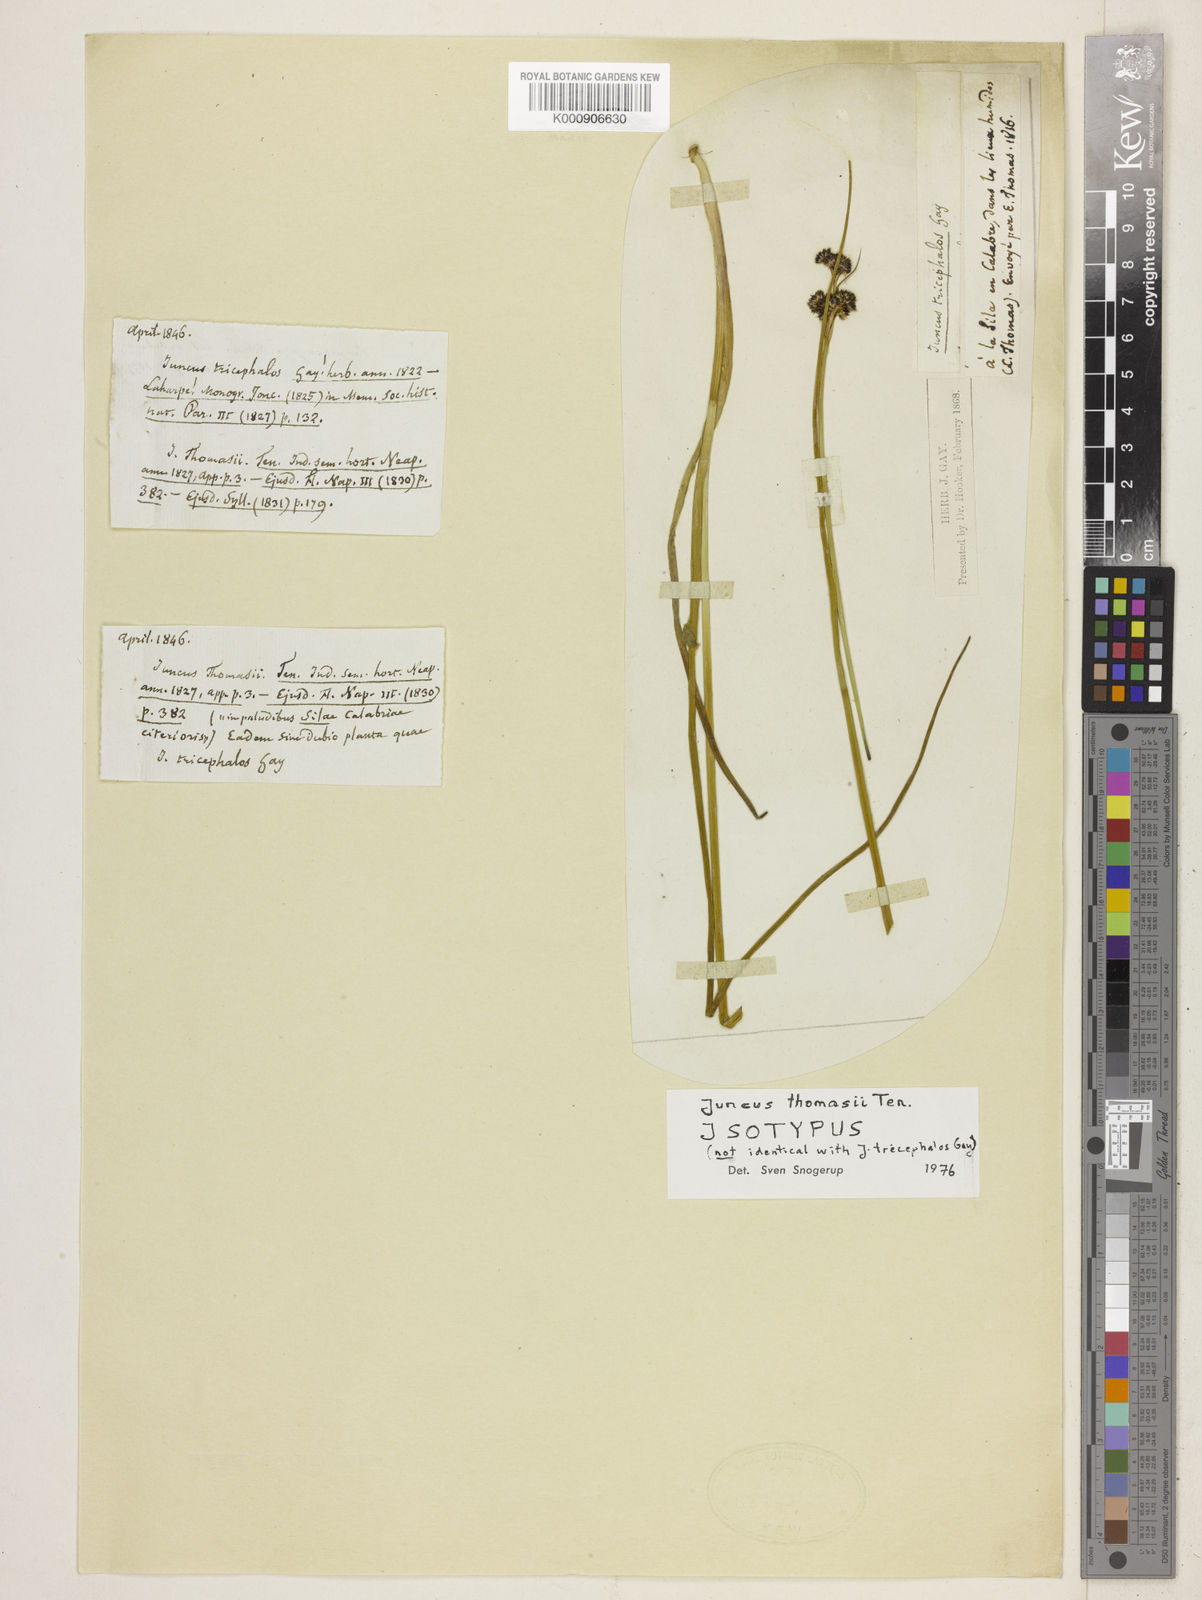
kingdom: Plantae
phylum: Tracheophyta
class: Liliopsida
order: Poales
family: Juncaceae
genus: Juncus
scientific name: Juncus thomasii
